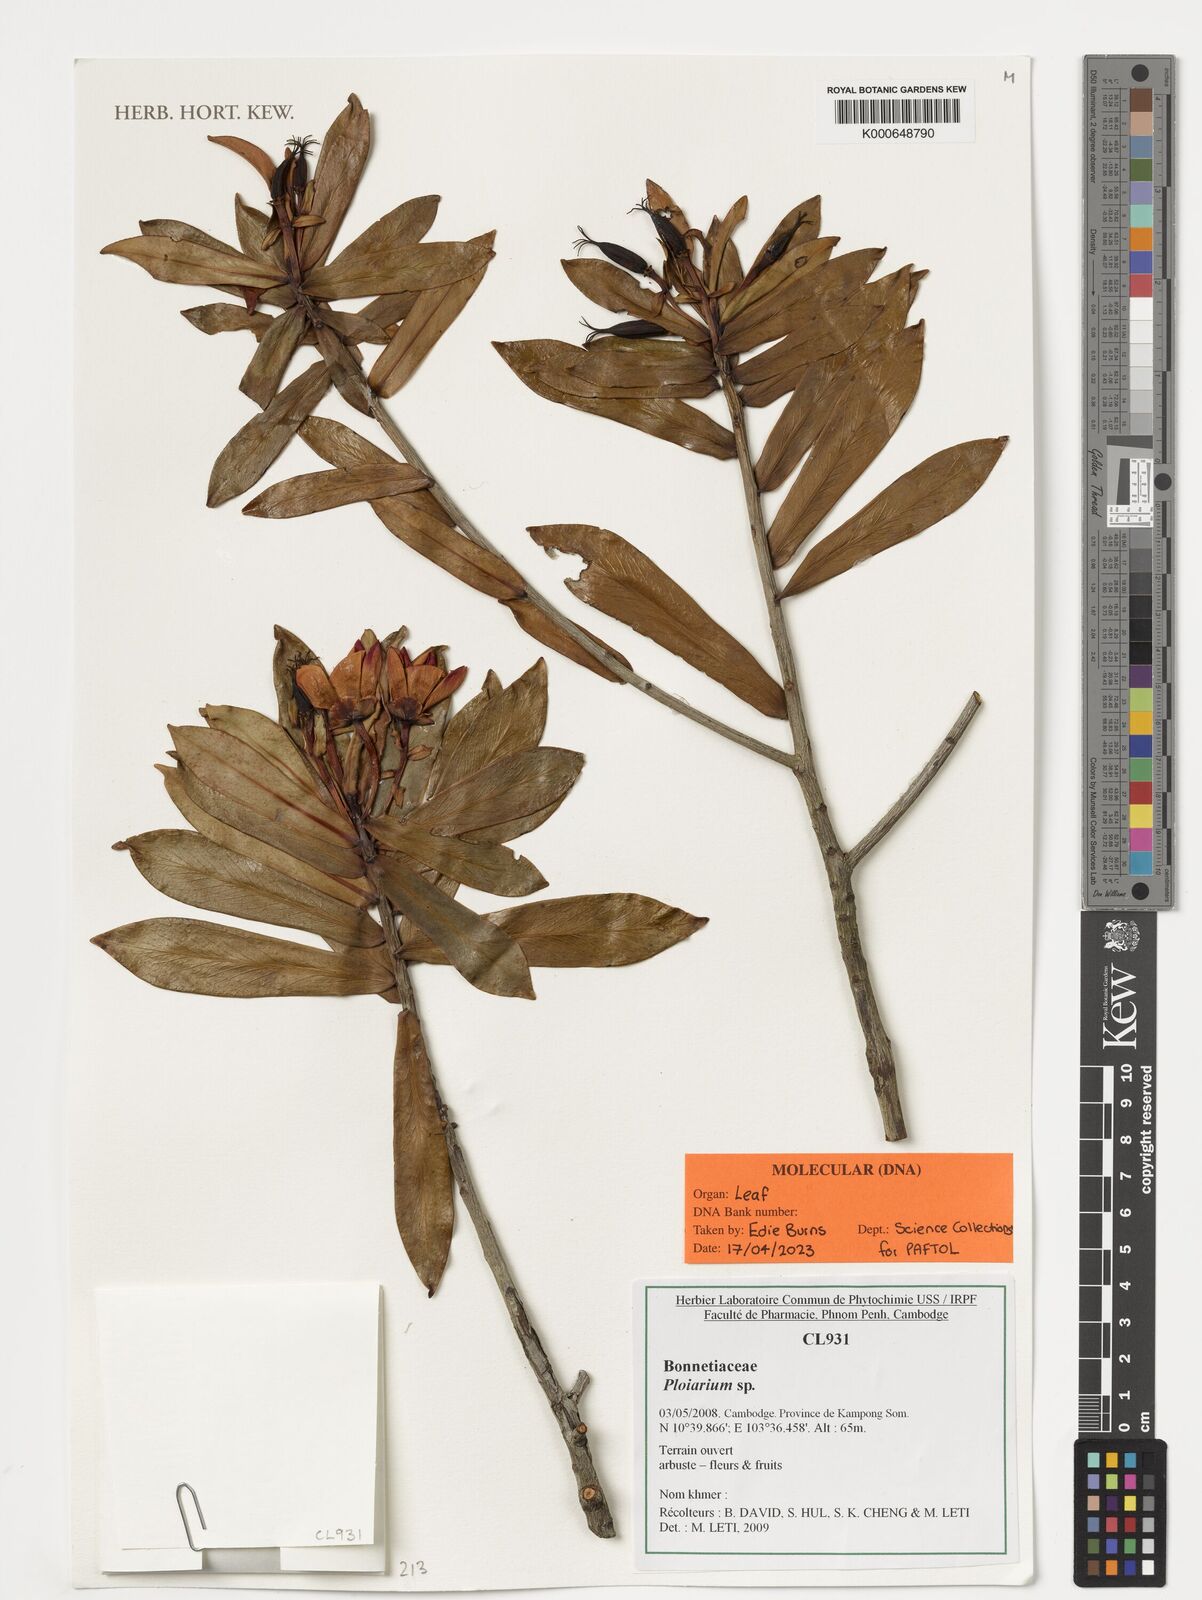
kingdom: Plantae
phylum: Tracheophyta
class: Magnoliopsida
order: Malpighiales
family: Bonnetiaceae
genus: Ploiarium
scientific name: Ploiarium
